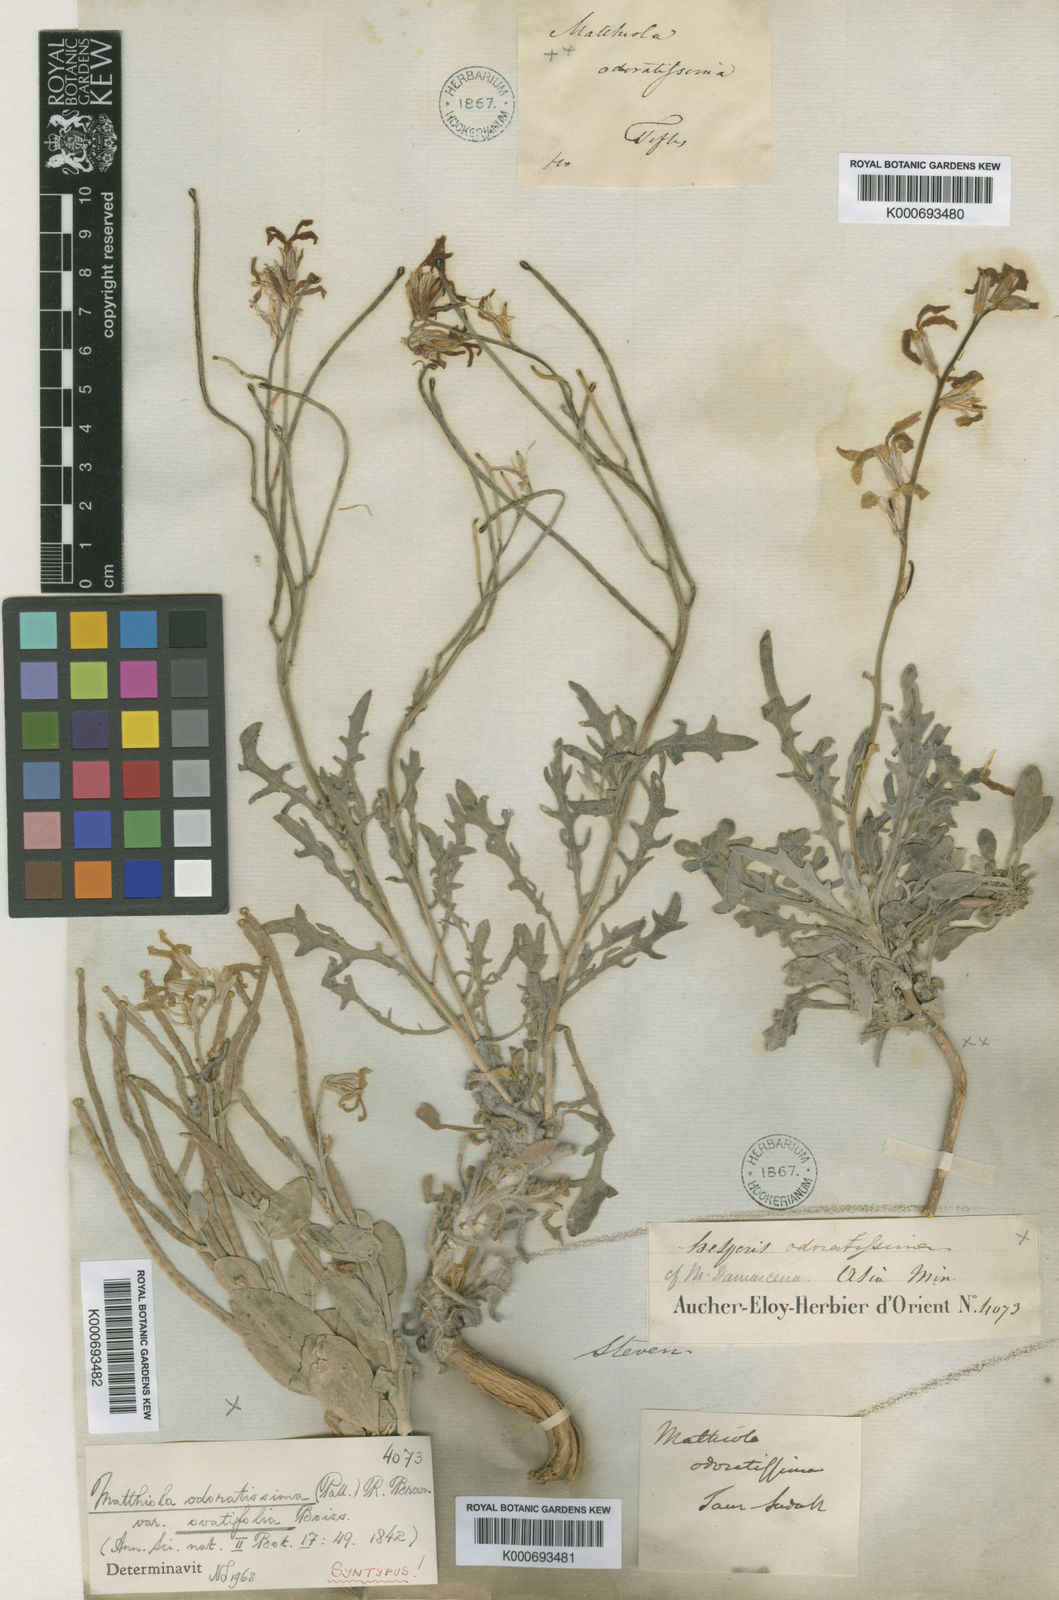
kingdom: Plantae
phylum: Tracheophyta
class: Magnoliopsida
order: Brassicales
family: Brassicaceae
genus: Matthiola
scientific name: Matthiola ovatifolia
